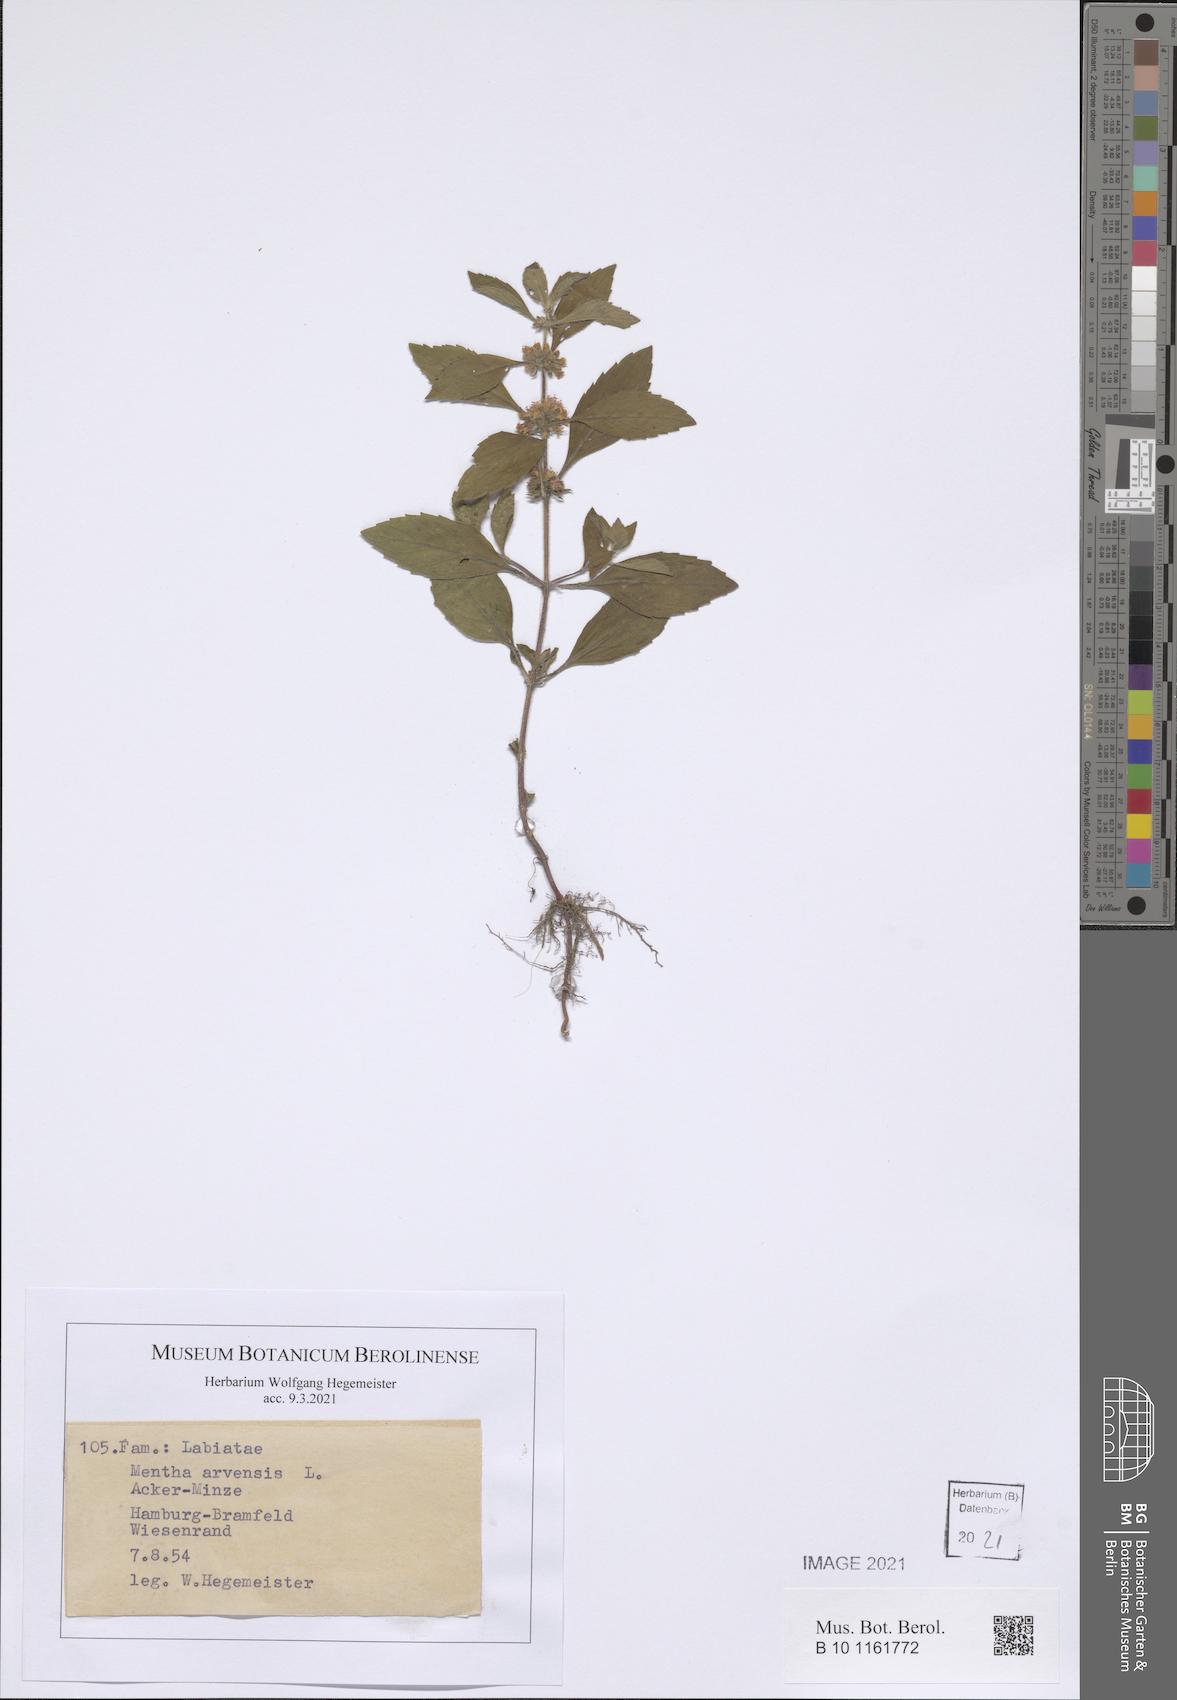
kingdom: Plantae
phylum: Tracheophyta
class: Magnoliopsida
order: Lamiales
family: Lamiaceae
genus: Mentha
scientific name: Mentha arvensis
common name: Corn mint
